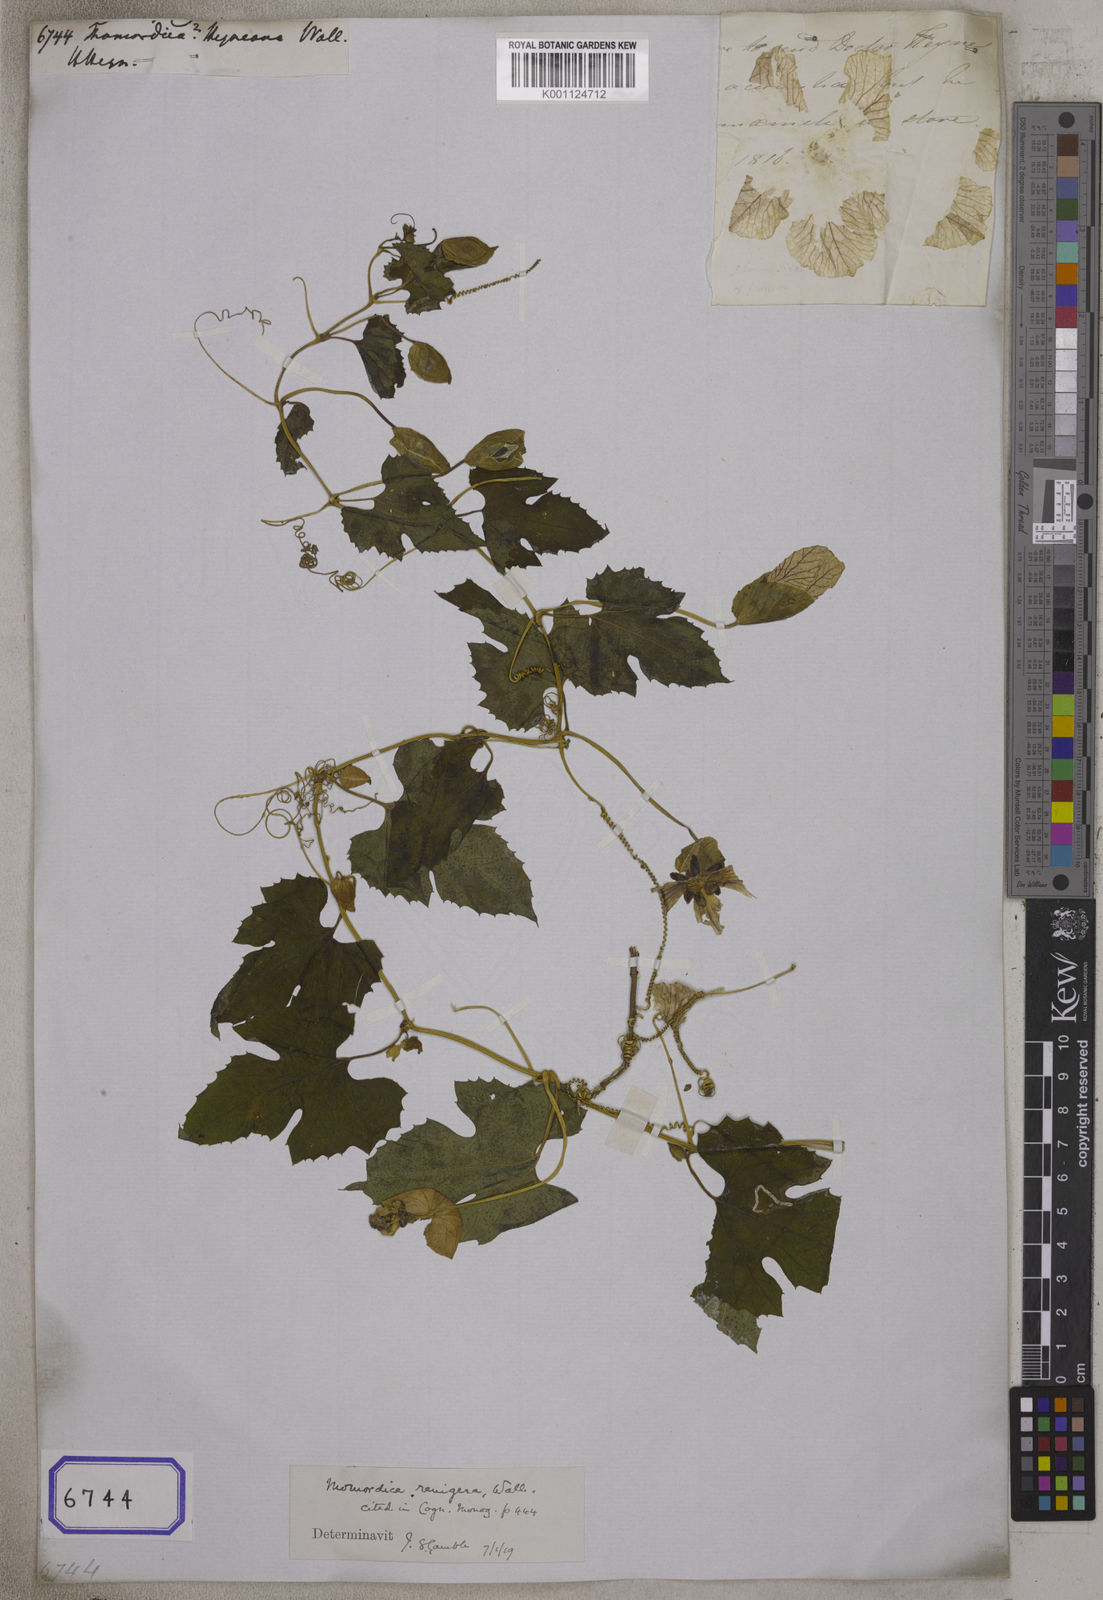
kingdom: Plantae
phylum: Tracheophyta
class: Magnoliopsida
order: Cucurbitales
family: Cucurbitaceae
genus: Momordica
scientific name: Momordica
